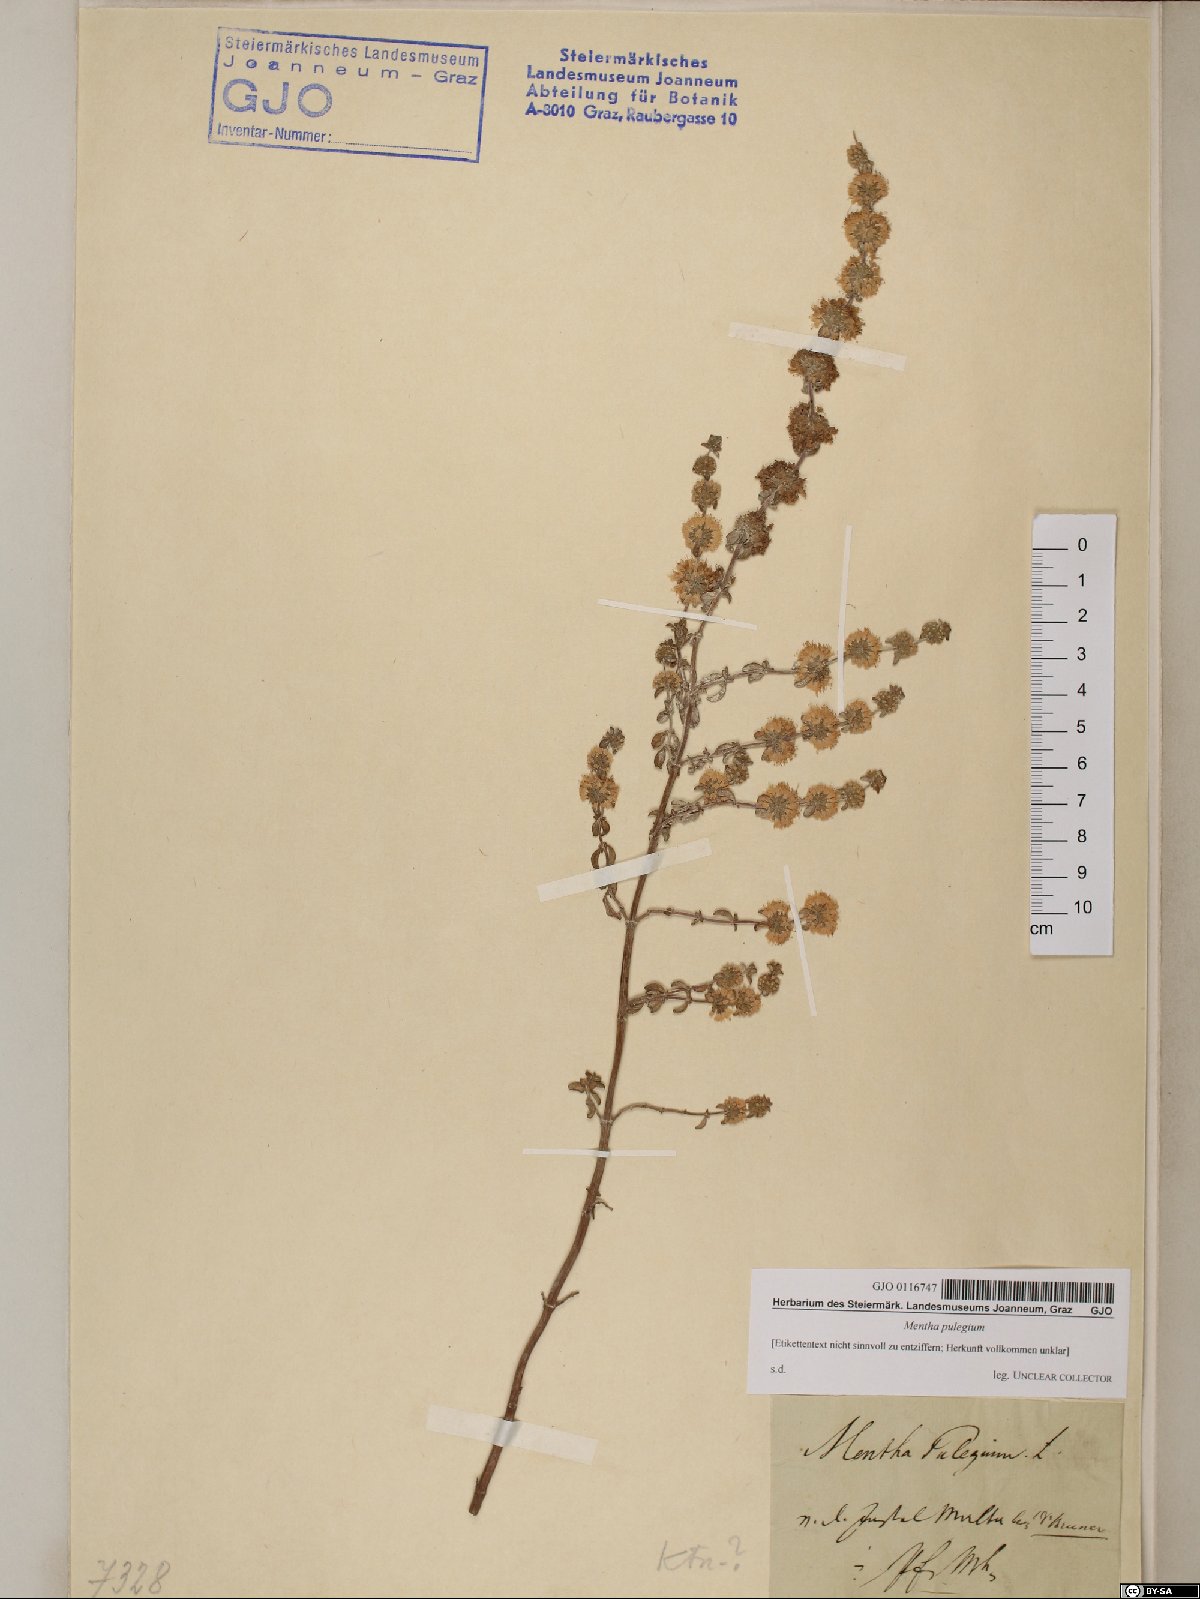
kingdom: Plantae
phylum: Tracheophyta
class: Magnoliopsida
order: Lamiales
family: Lamiaceae
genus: Mentha
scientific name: Mentha pulegium
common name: Pennyroyal
